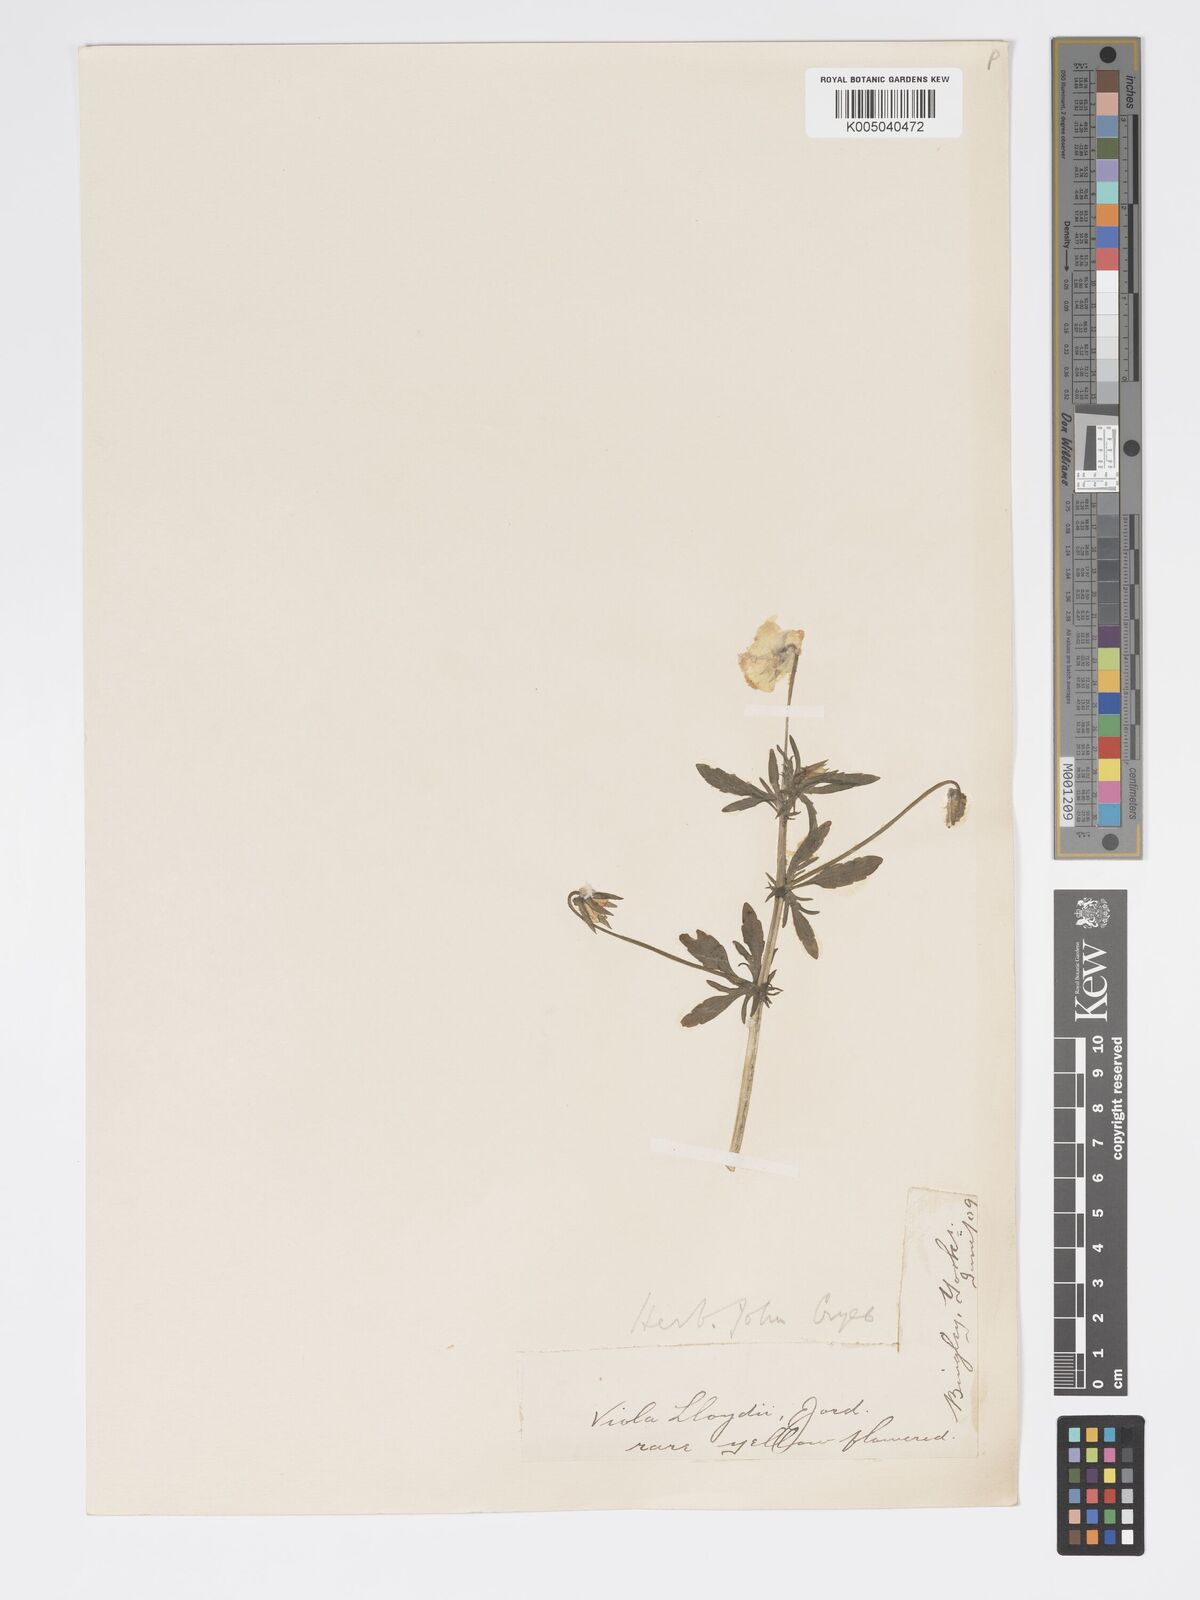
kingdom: Plantae
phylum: Tracheophyta
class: Magnoliopsida
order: Malpighiales
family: Violaceae
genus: Viola
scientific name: Viola arvensis
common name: Field pansy
